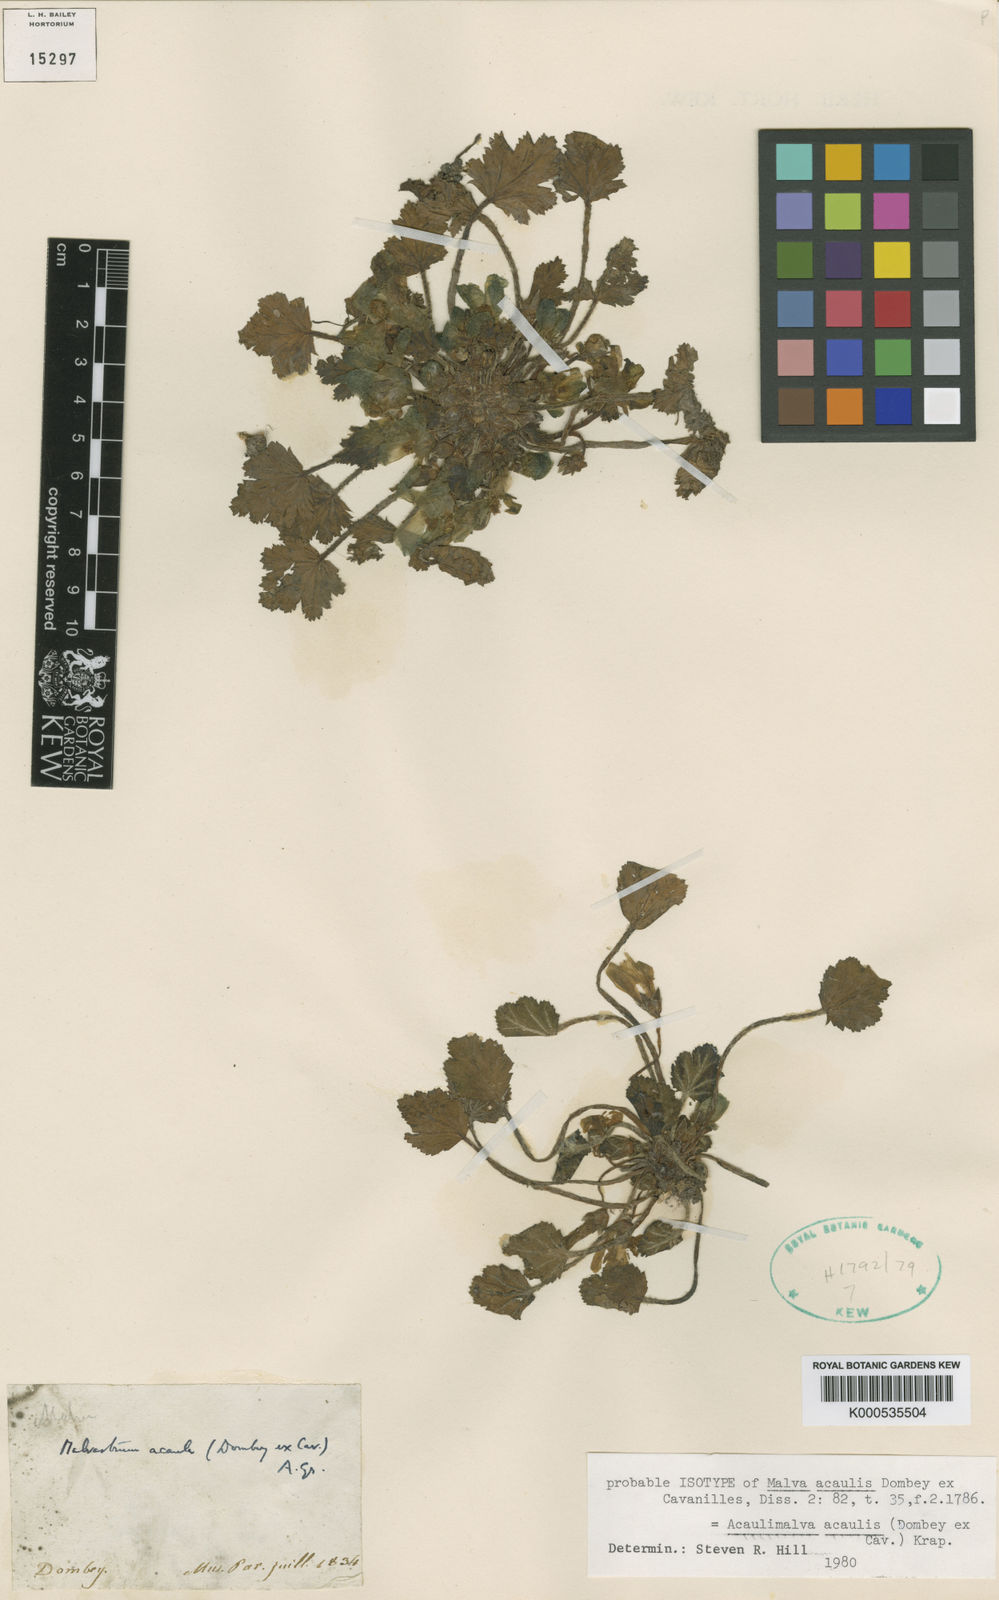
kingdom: Plantae
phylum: Tracheophyta
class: Magnoliopsida
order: Malvales
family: Malvaceae
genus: Acaulimalva
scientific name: Acaulimalva acaulis
